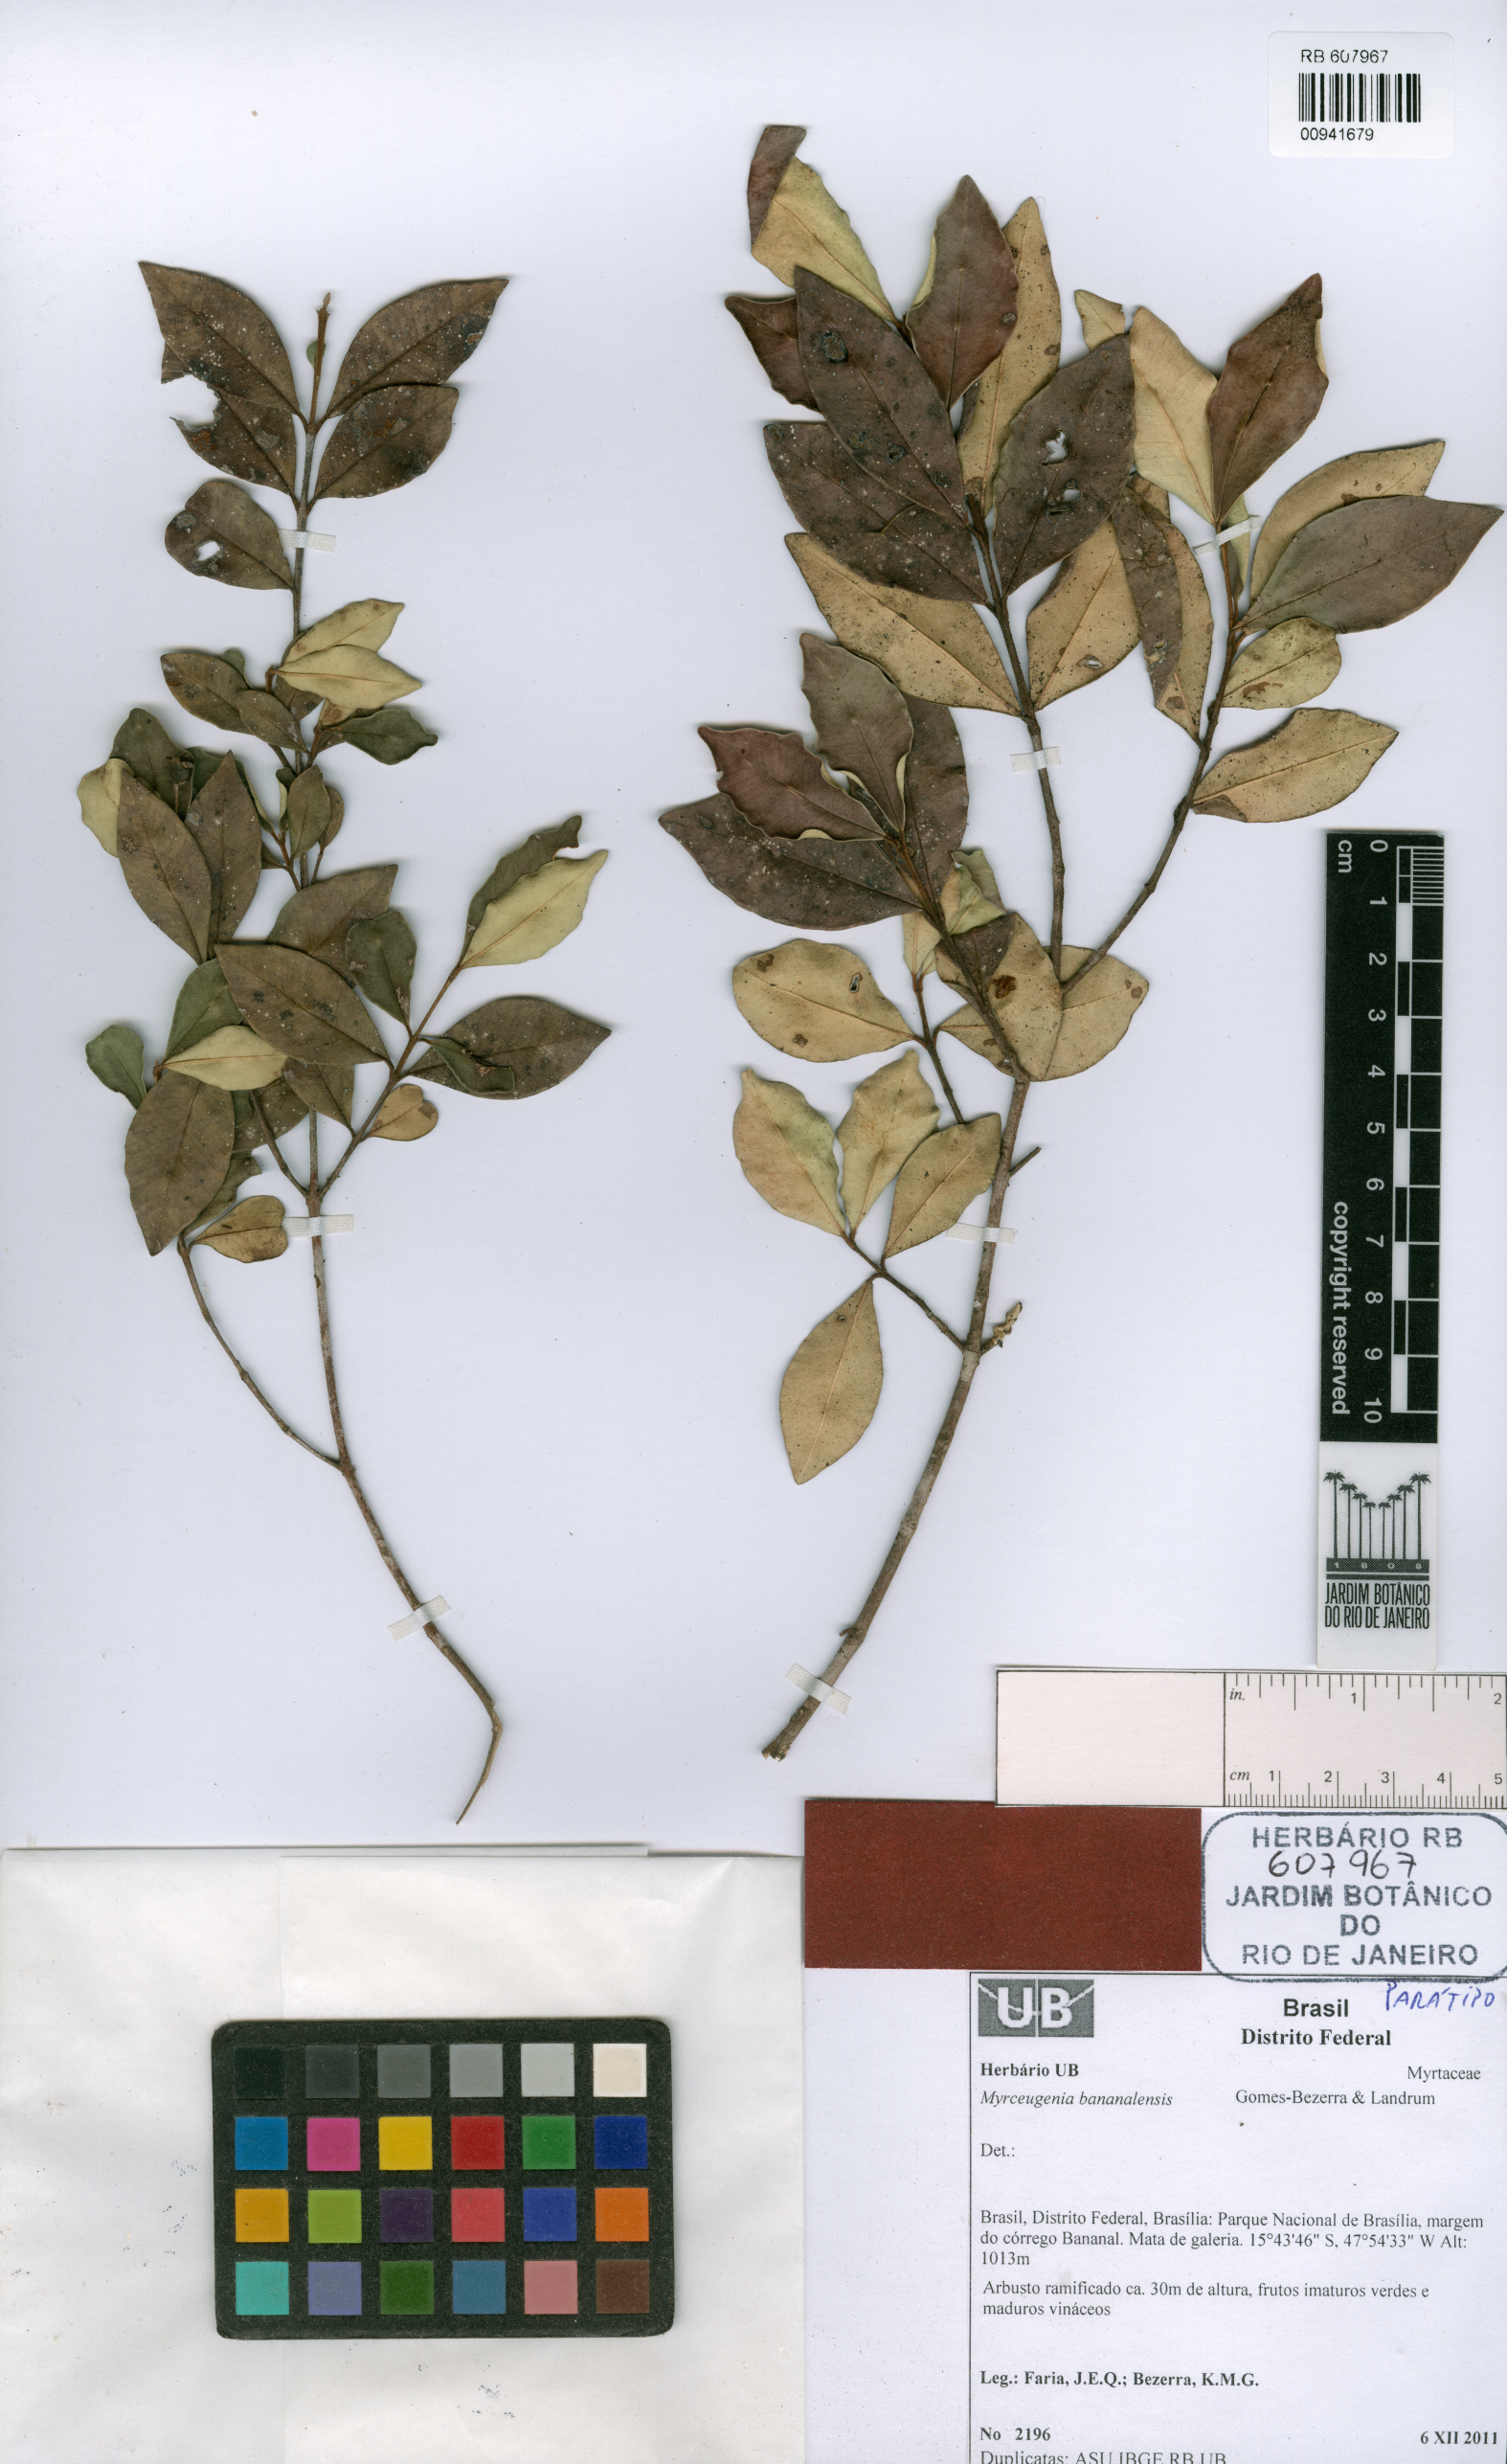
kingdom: Plantae
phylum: Tracheophyta
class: Magnoliopsida
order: Myrtales
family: Myrtaceae
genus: Myrceugenia
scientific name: Myrceugenia bananalensis
